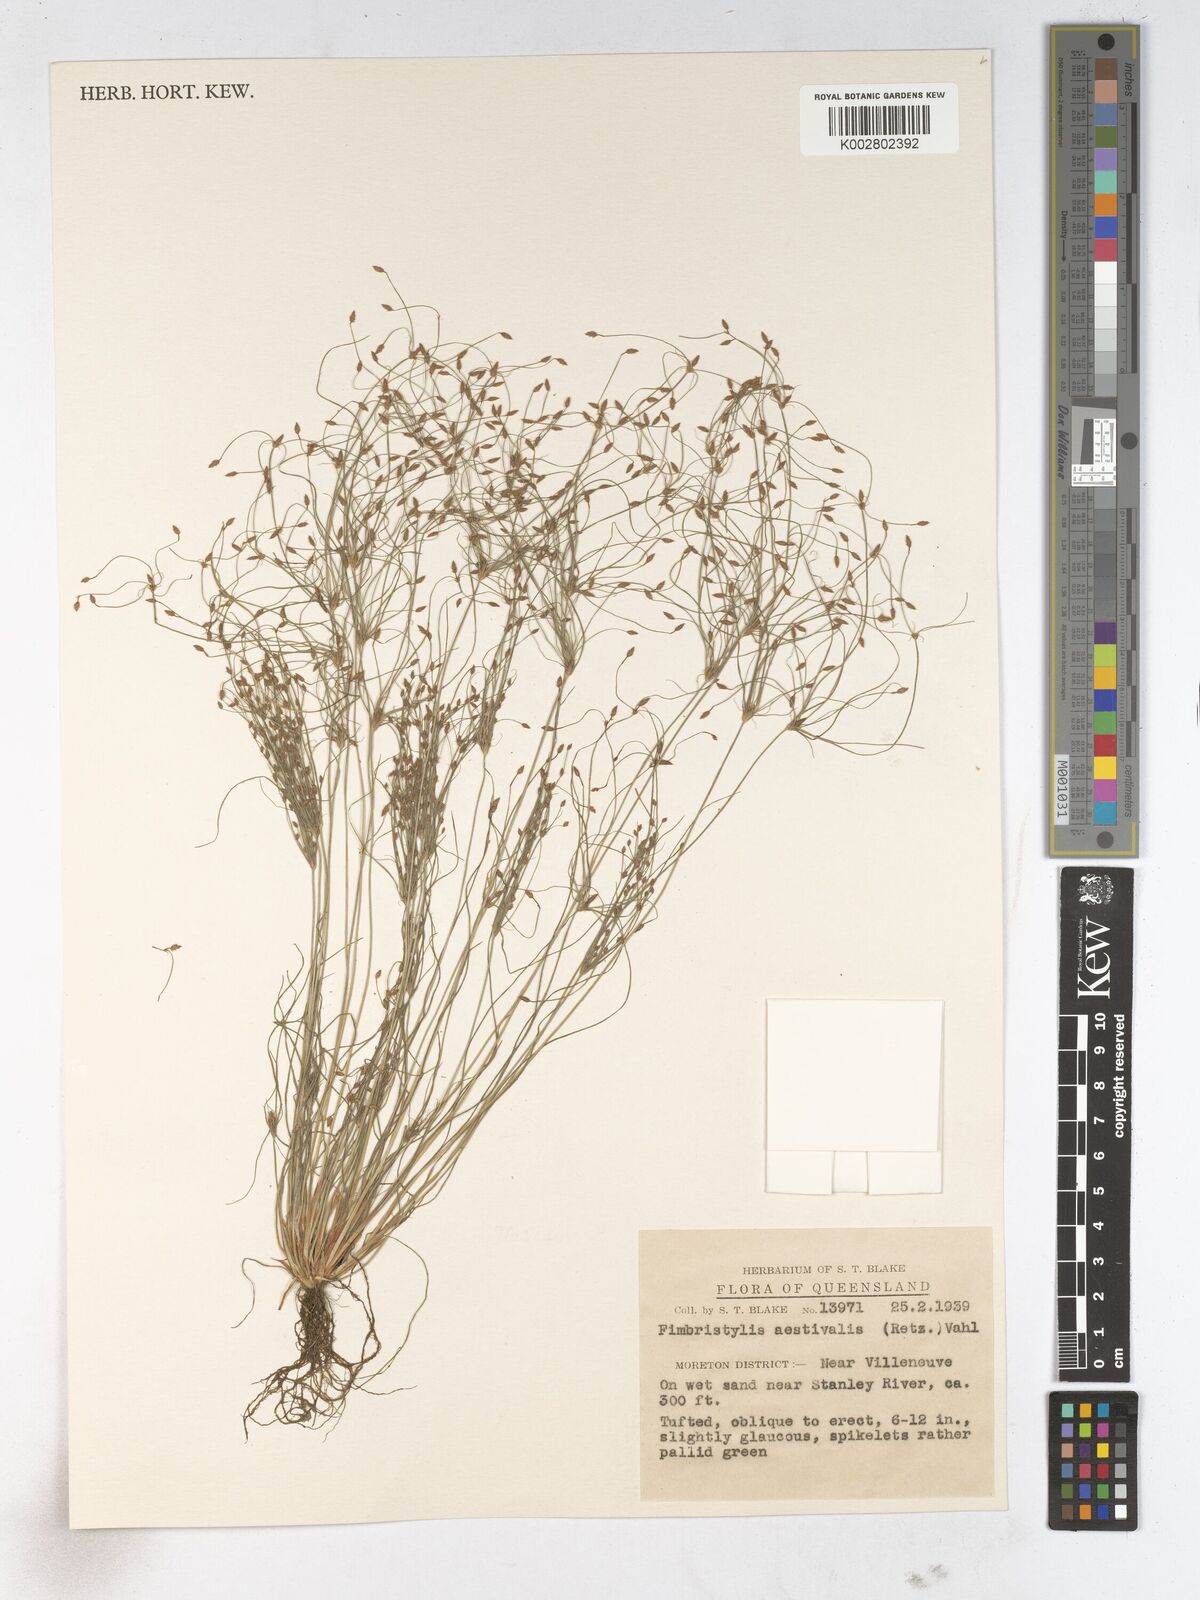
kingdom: Plantae
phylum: Tracheophyta
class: Liliopsida
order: Poales
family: Cyperaceae
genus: Fimbristylis
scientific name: Fimbristylis aestivalis
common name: Summer fimbry
